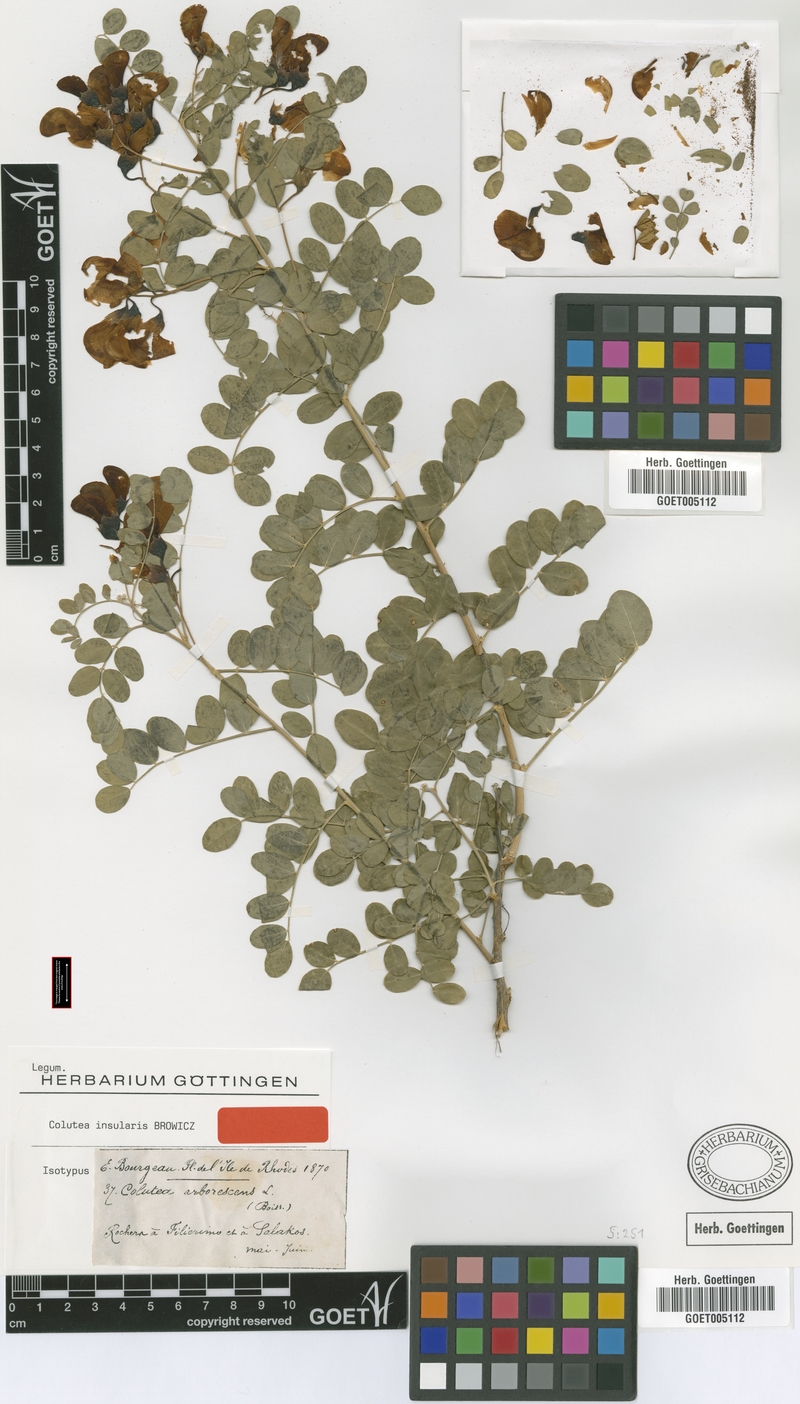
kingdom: Plantae
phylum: Tracheophyta
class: Magnoliopsida
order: Fabales
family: Fabaceae
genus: Colutea
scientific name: Colutea insularis
